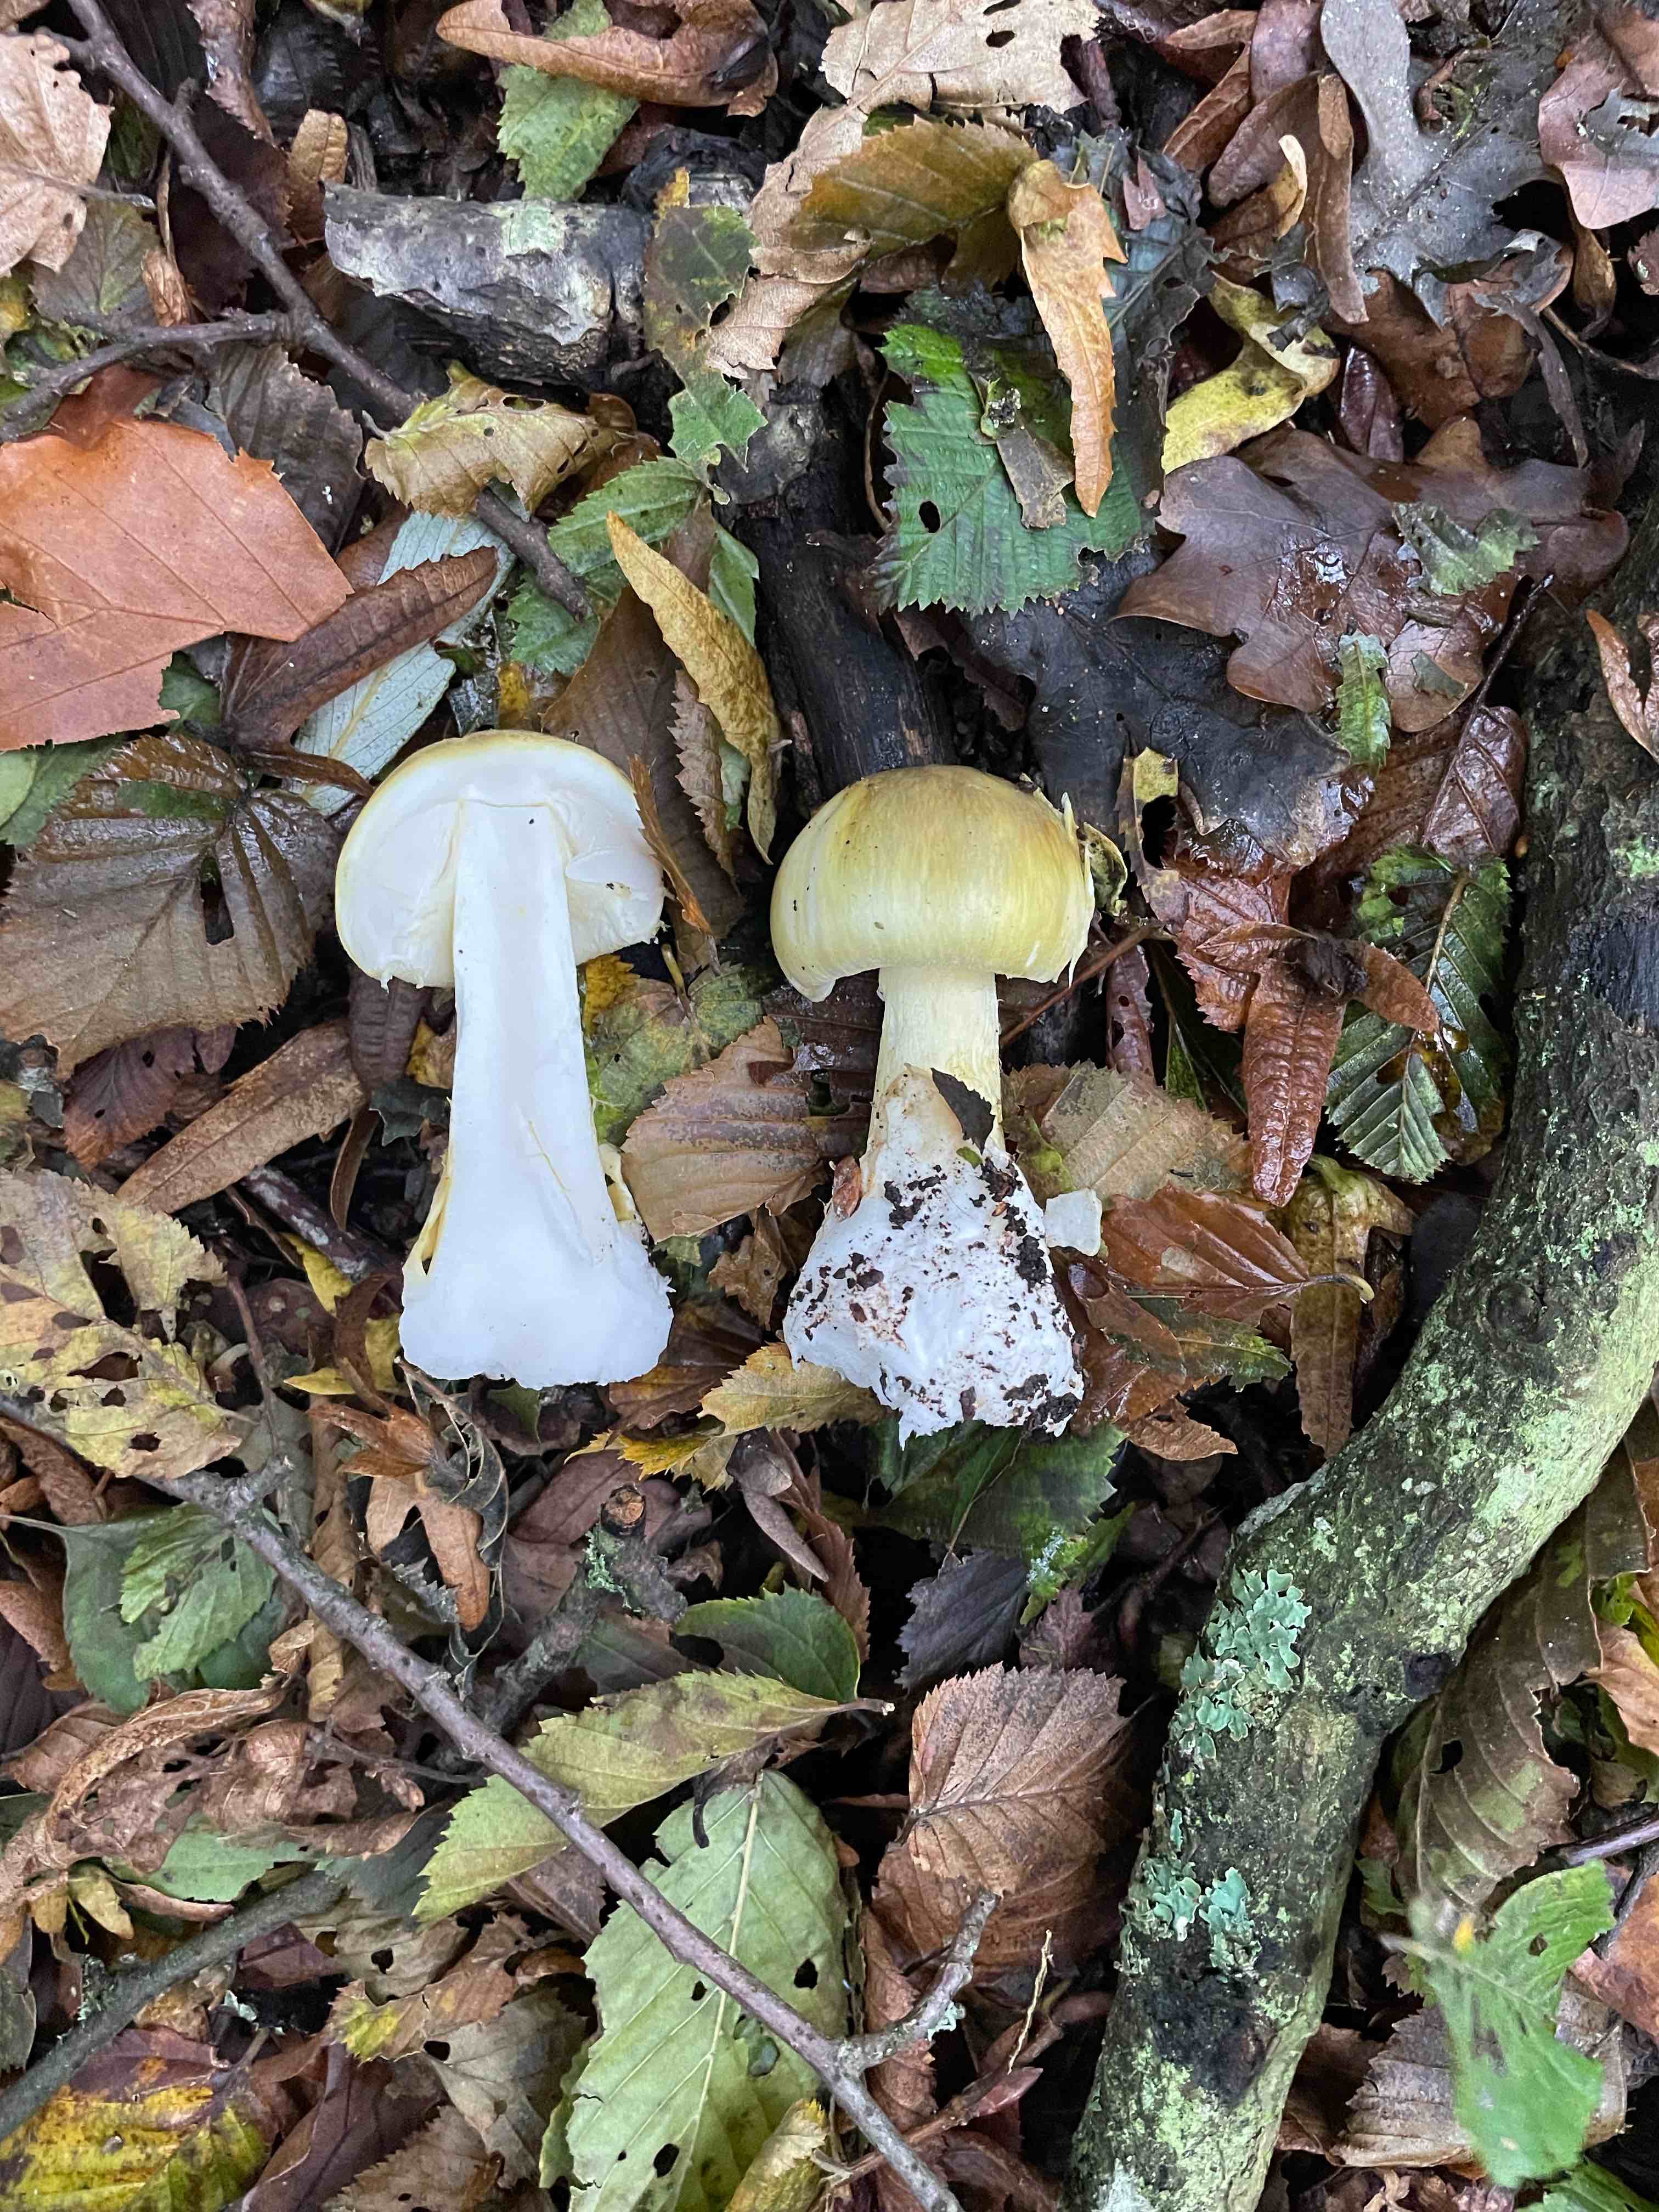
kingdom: Fungi
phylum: Basidiomycota
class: Agaricomycetes
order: Agaricales
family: Amanitaceae
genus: Amanita
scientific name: Amanita phalloides
